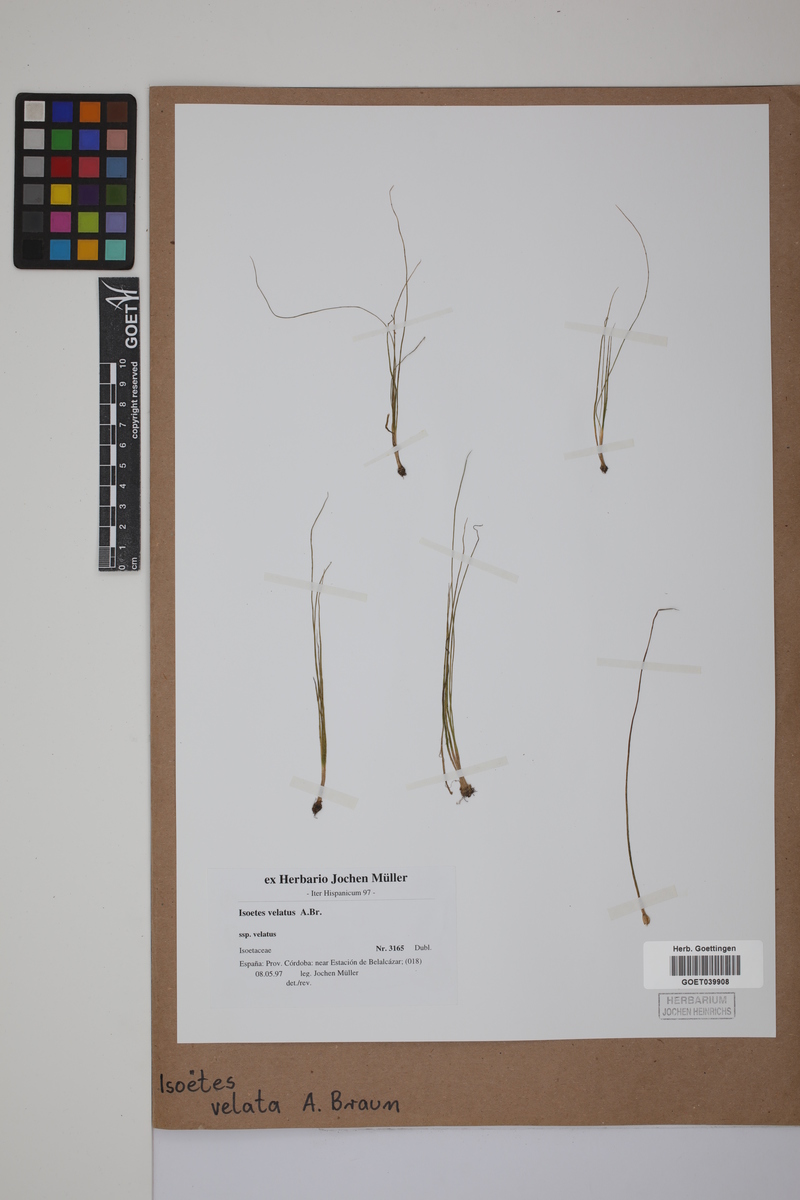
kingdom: Plantae
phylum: Tracheophyta
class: Lycopodiopsida
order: Isoetales
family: Isoetaceae
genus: Isoetes
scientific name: Isoetes longissima
